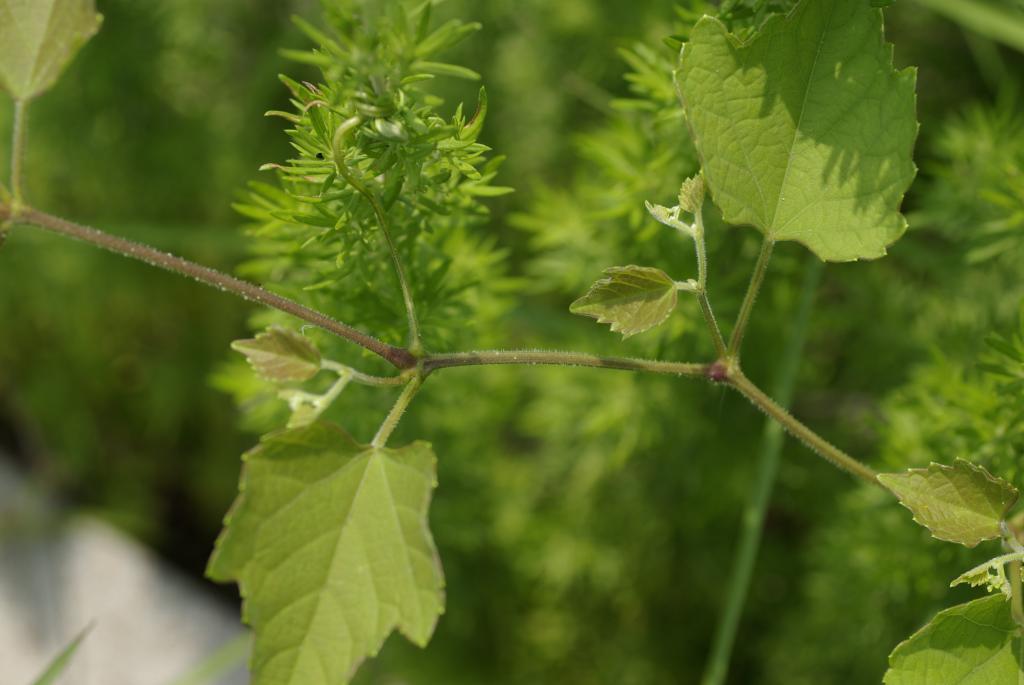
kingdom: Plantae
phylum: Tracheophyta
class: Magnoliopsida
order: Vitales
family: Vitaceae
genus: Ampelopsis
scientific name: Ampelopsis glandulosa
